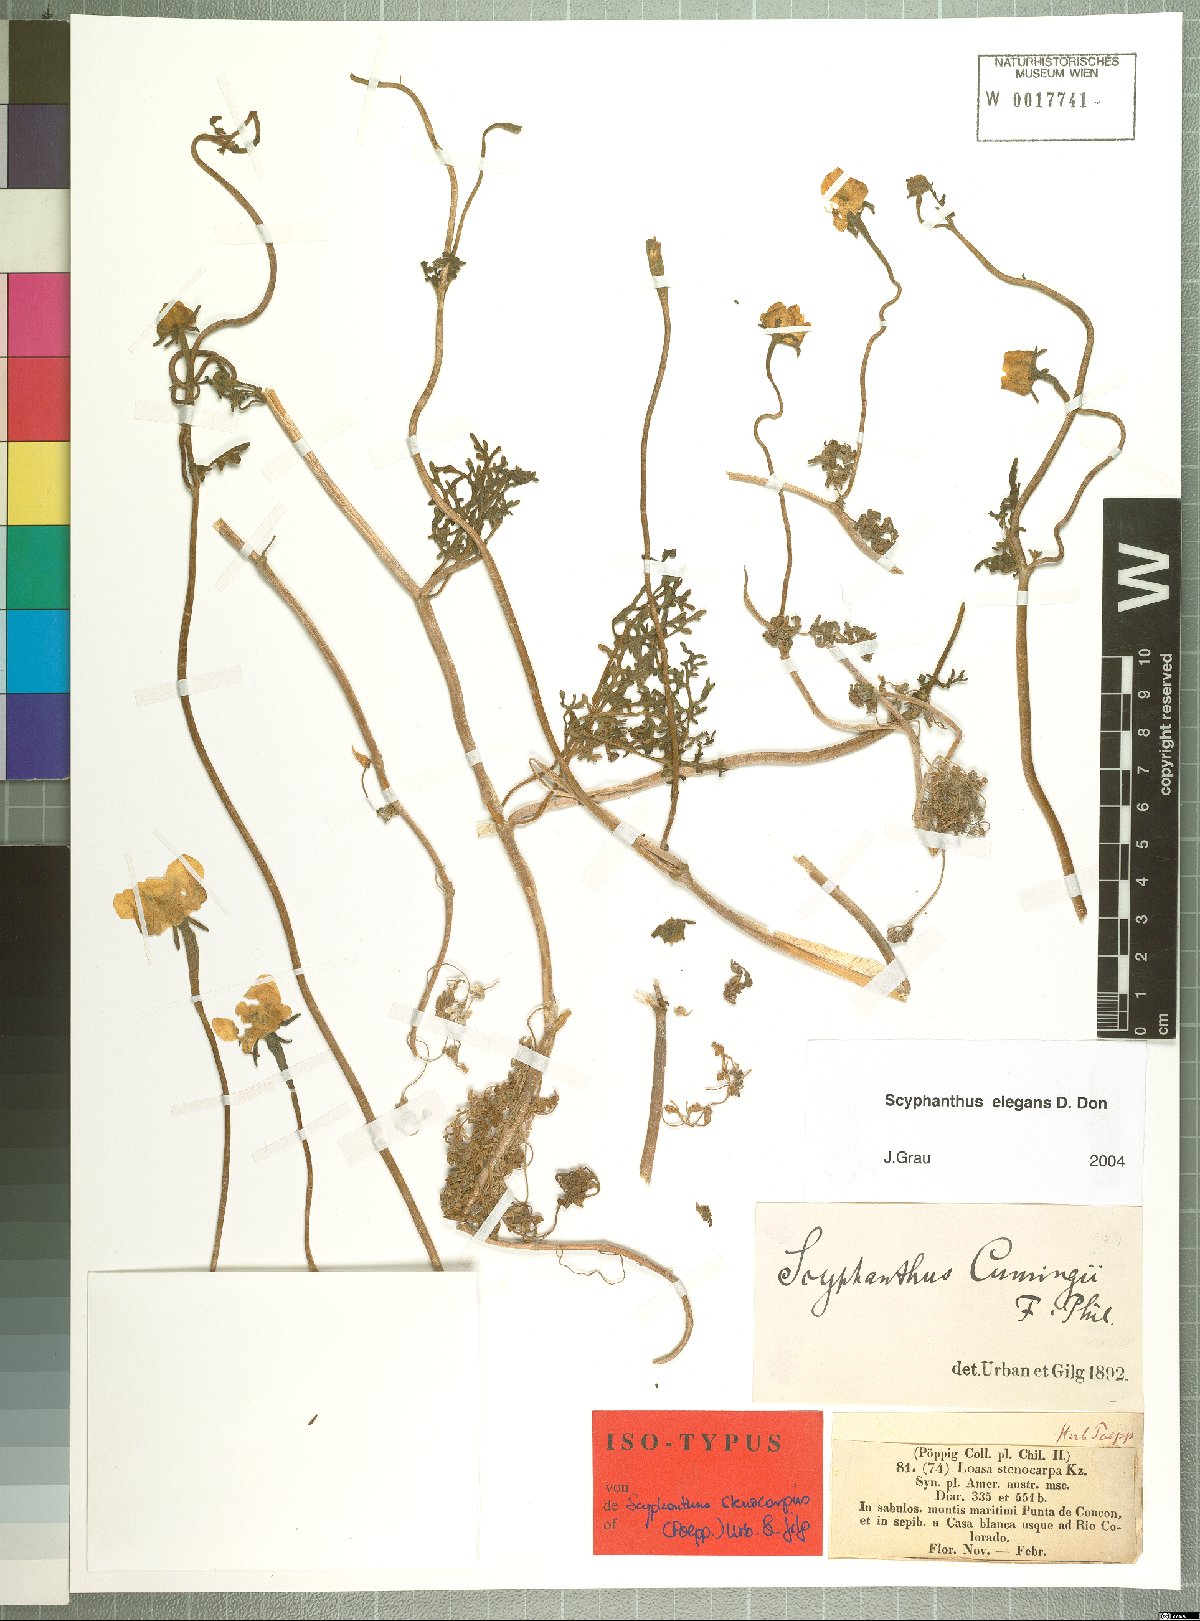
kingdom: Plantae
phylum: Tracheophyta
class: Magnoliopsida
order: Cornales
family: Loasaceae
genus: Scyphanthus
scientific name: Scyphanthus elegans
